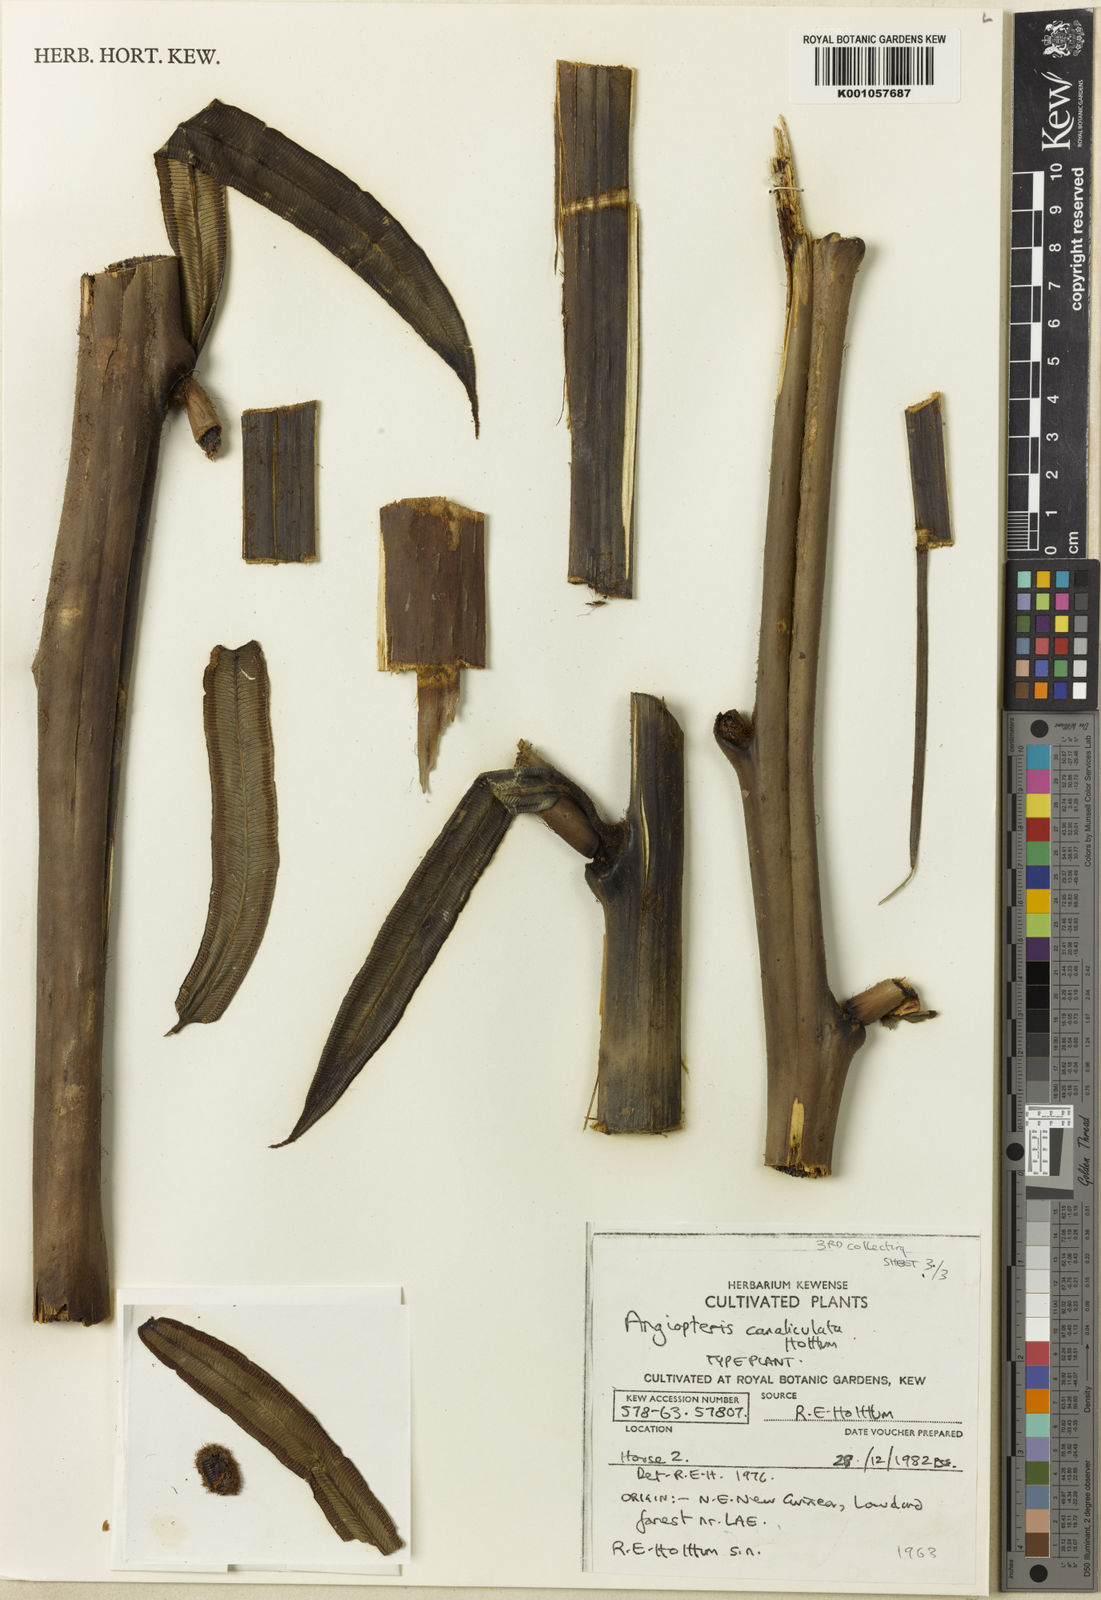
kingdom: Plantae
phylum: Tracheophyta
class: Polypodiopsida
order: Marattiales
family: Marattiaceae
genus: Angiopteris
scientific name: Angiopteris evecta
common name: Mule's-foot fern
